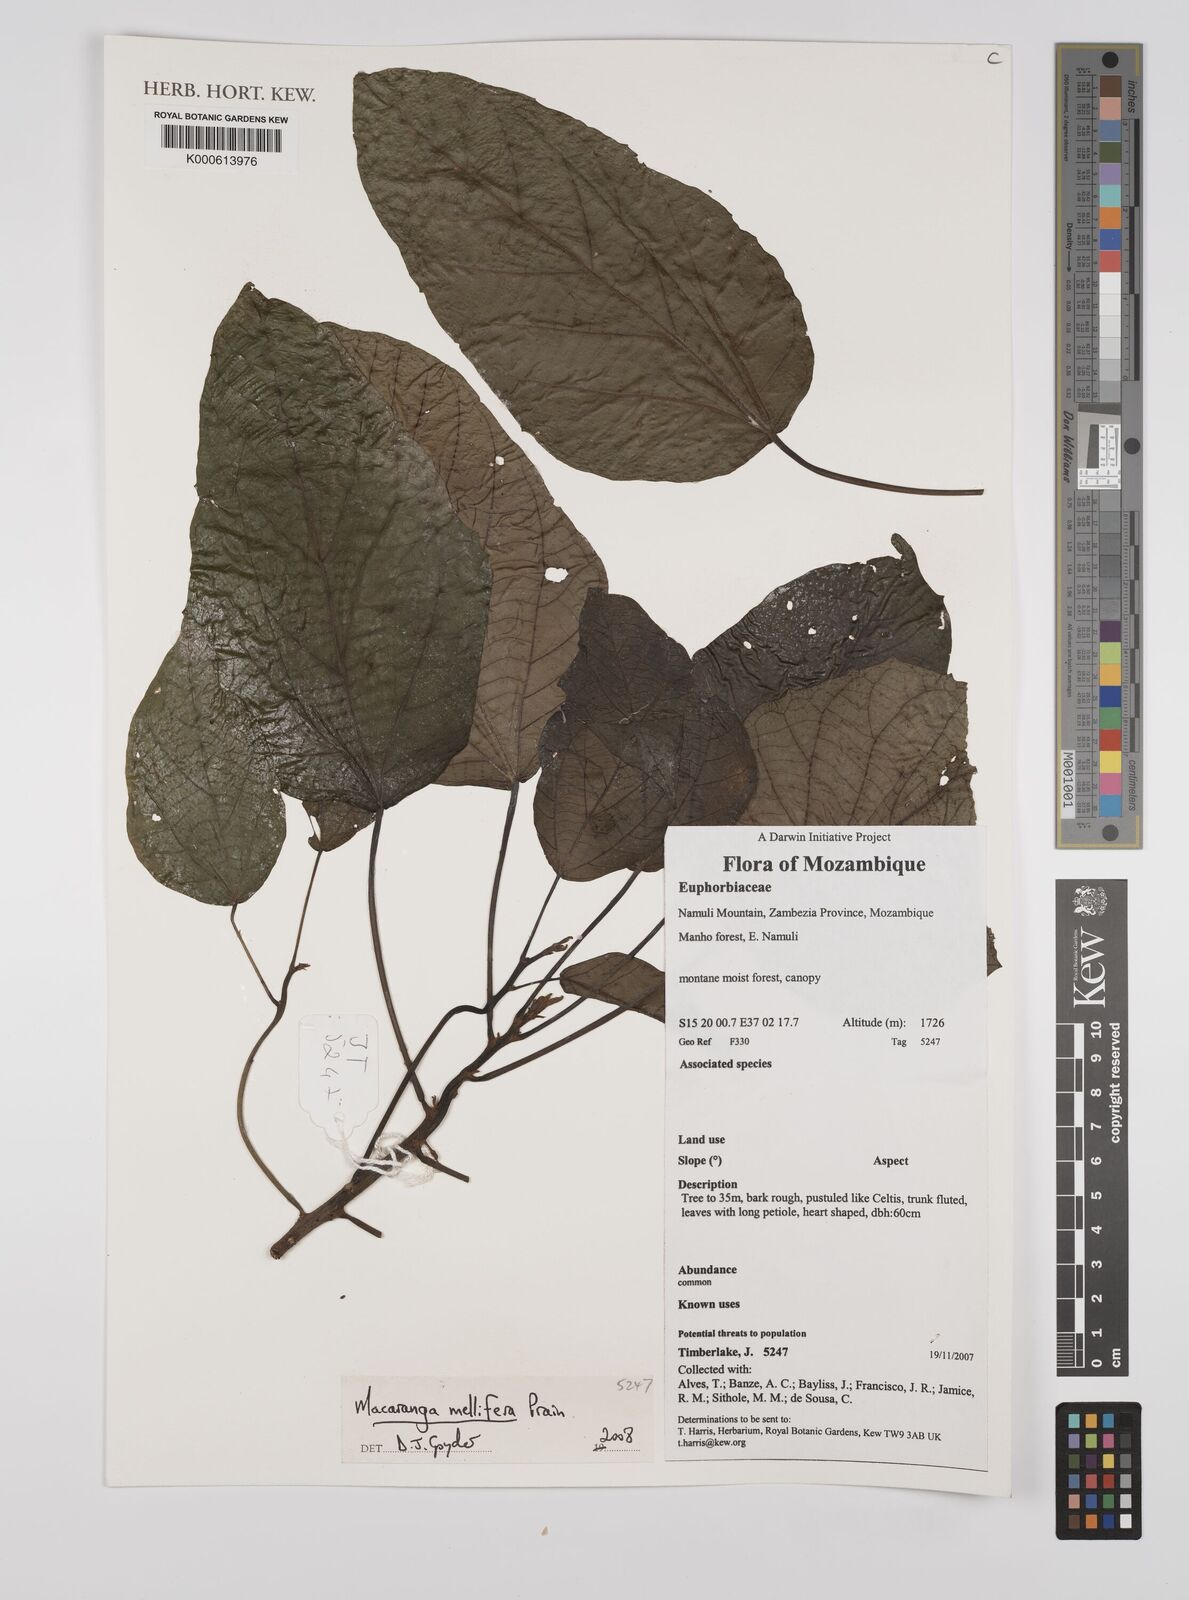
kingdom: Plantae
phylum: Tracheophyta
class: Magnoliopsida
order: Malpighiales
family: Euphorbiaceae
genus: Macaranga
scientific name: Macaranga mellifera
